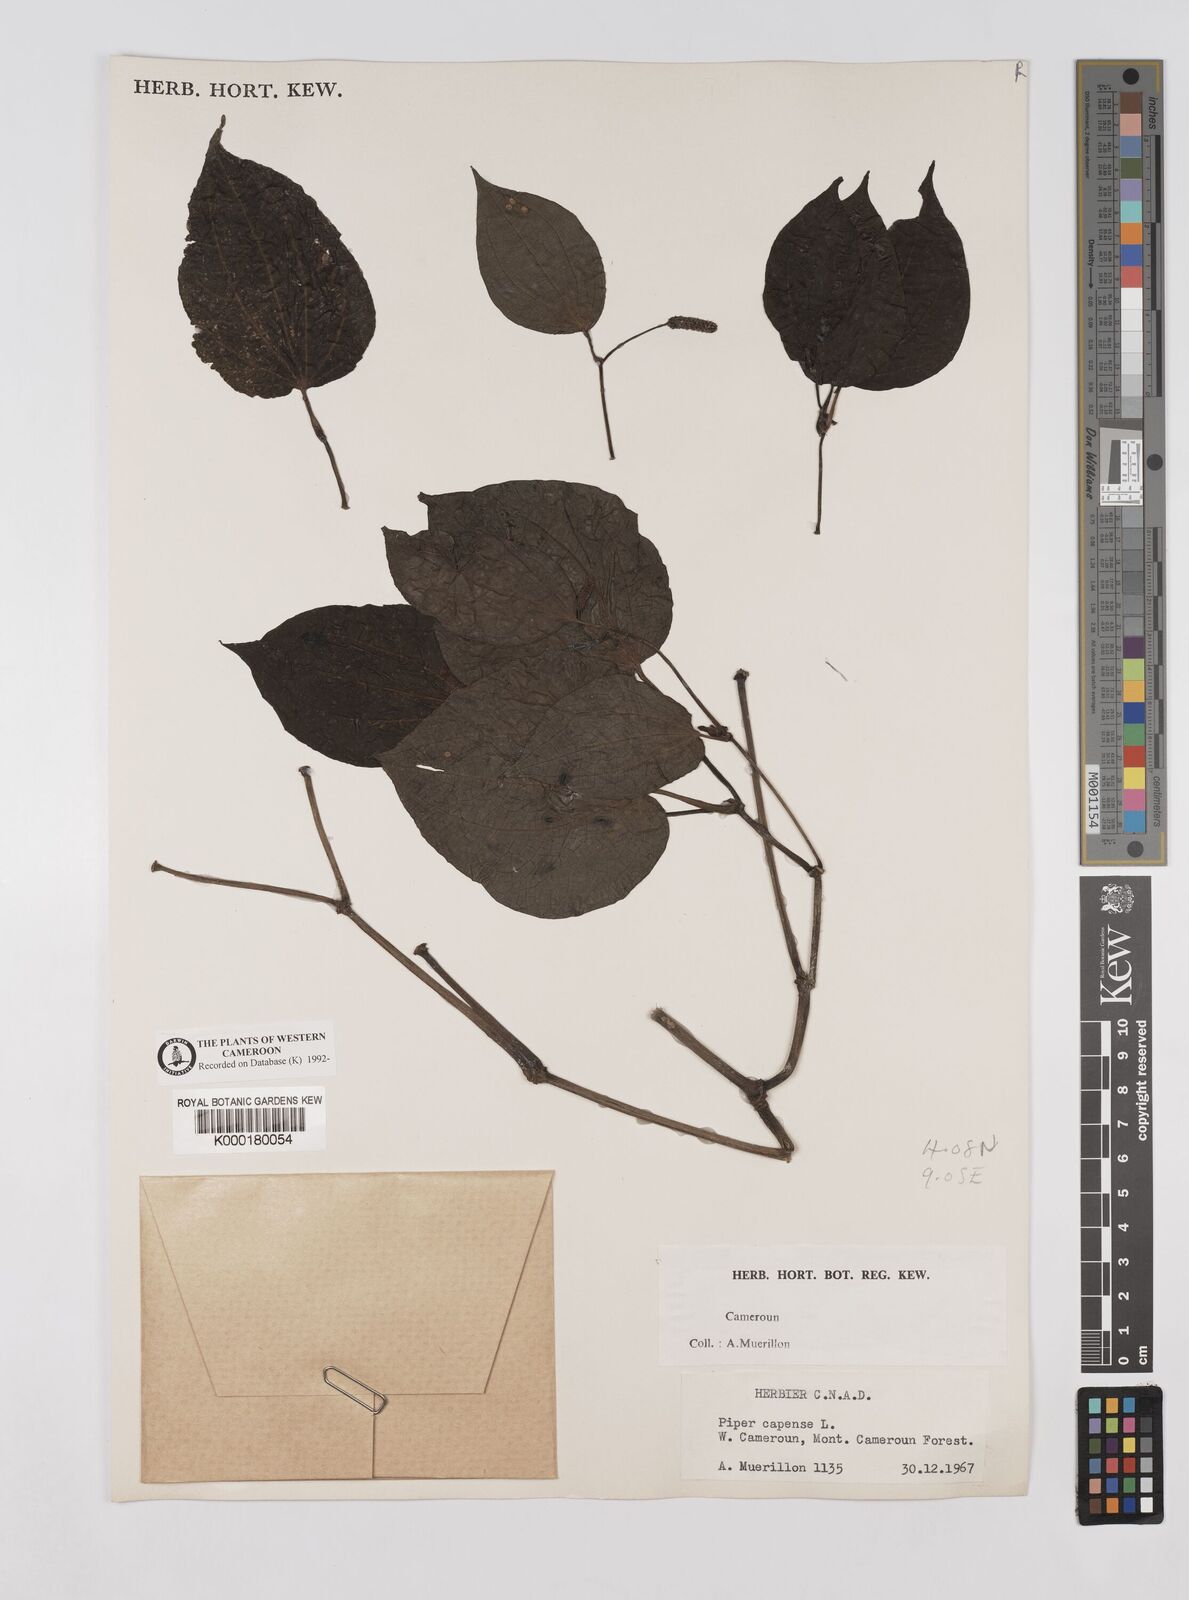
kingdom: Plantae
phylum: Tracheophyta
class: Magnoliopsida
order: Piperales
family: Piperaceae
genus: Piper
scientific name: Piper capense
